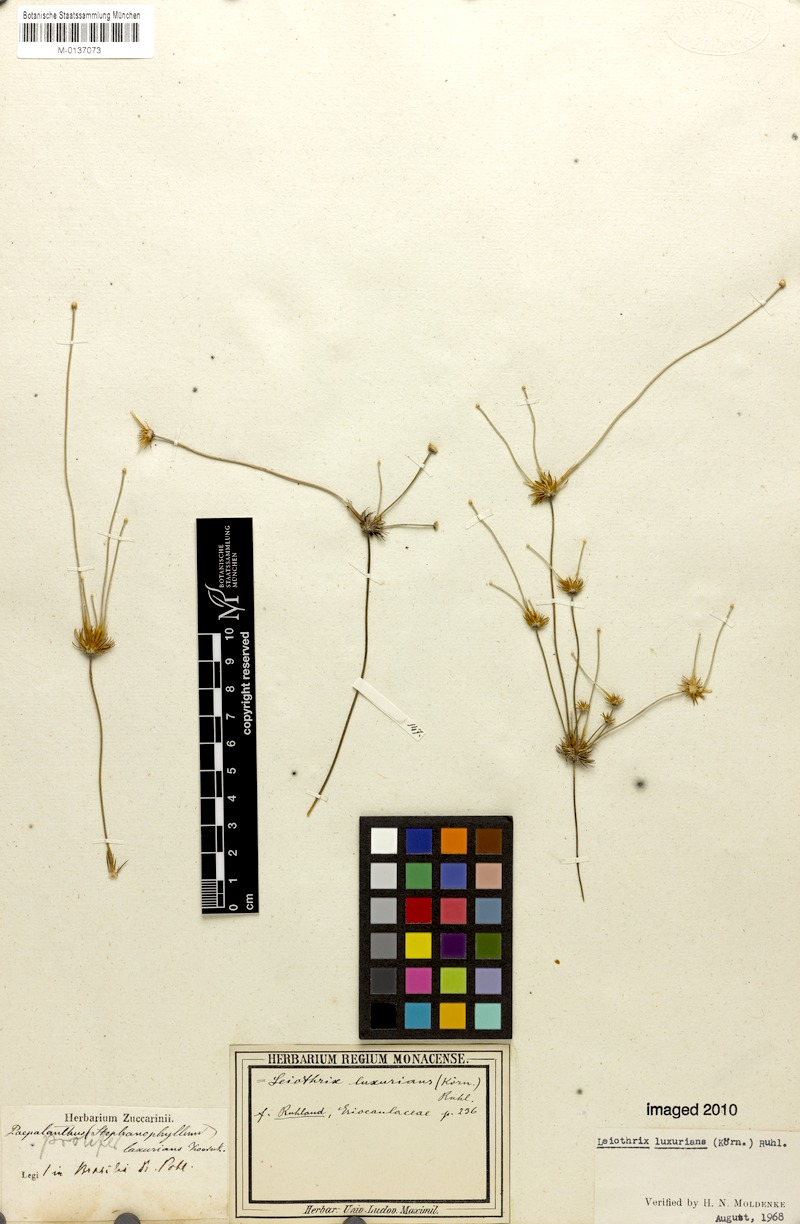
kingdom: Plantae
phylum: Tracheophyta
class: Liliopsida
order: Poales
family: Eriocaulaceae
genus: Leiothrix
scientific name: Leiothrix luxurians
